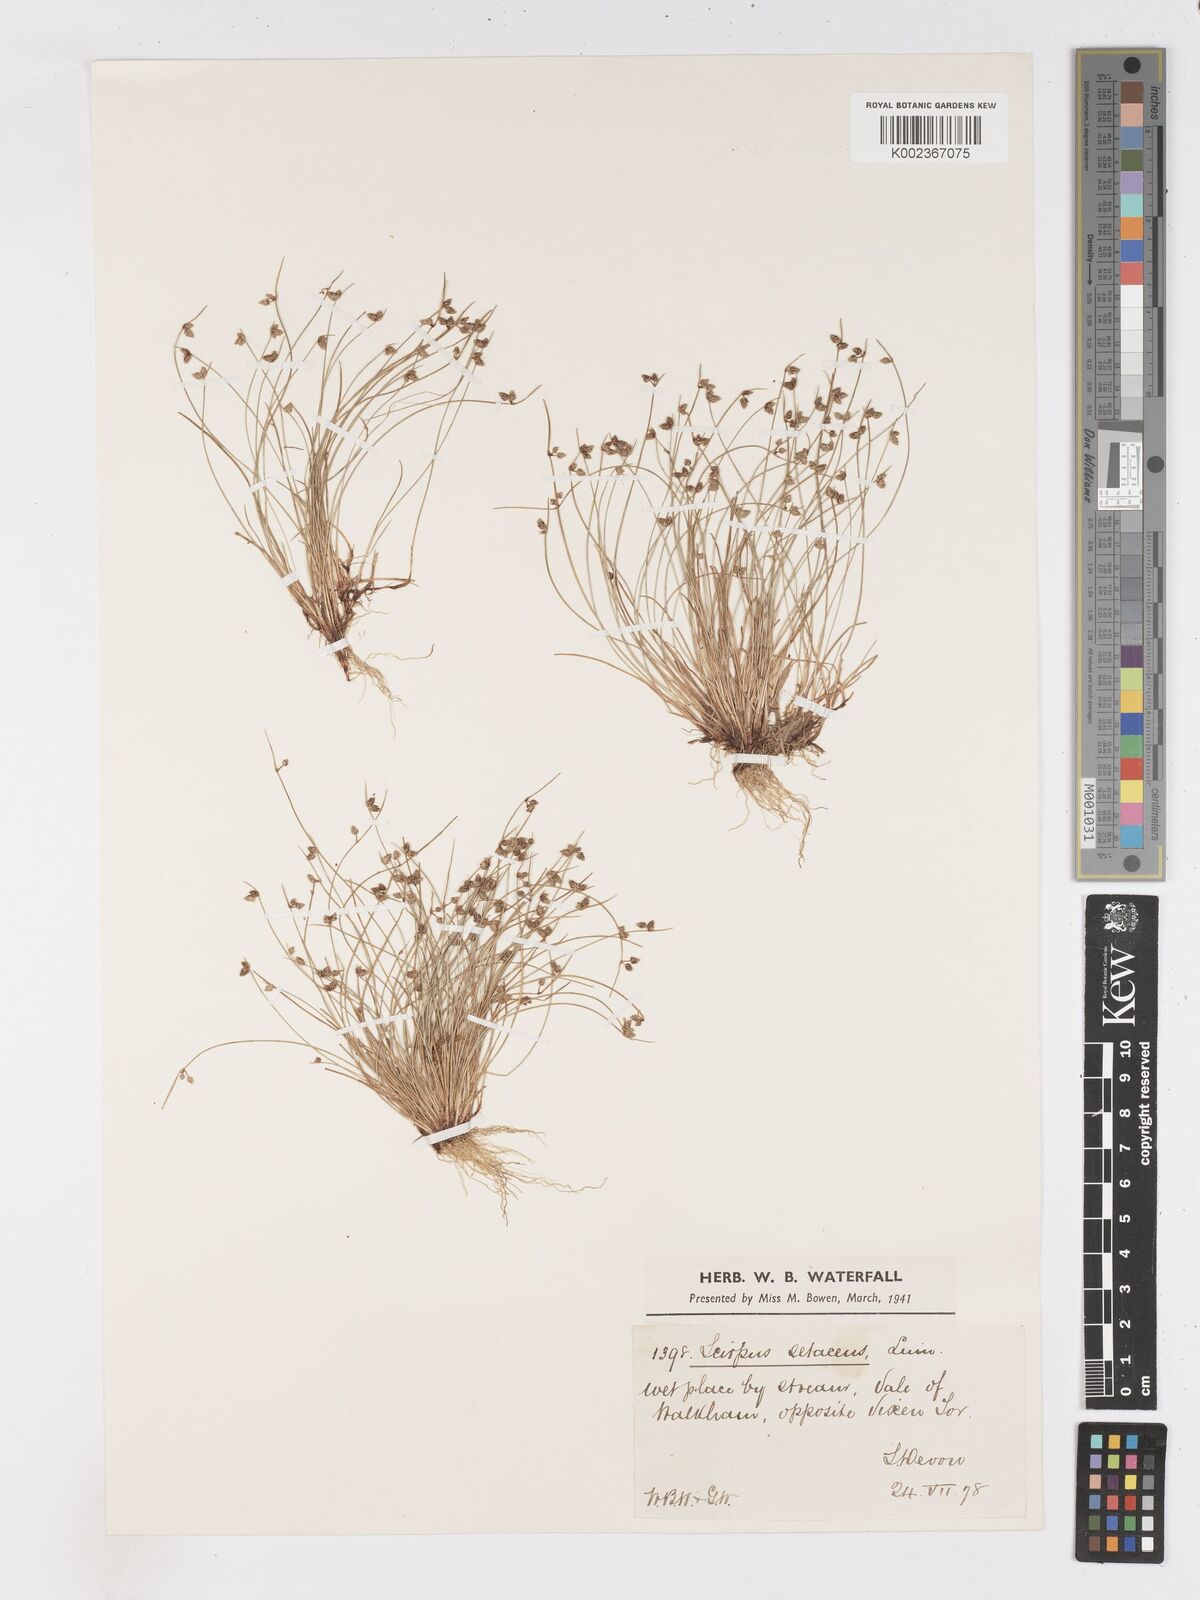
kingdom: Plantae
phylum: Tracheophyta
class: Liliopsida
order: Poales
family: Cyperaceae
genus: Isolepis
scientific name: Isolepis setacea
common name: Bristle club-rush
